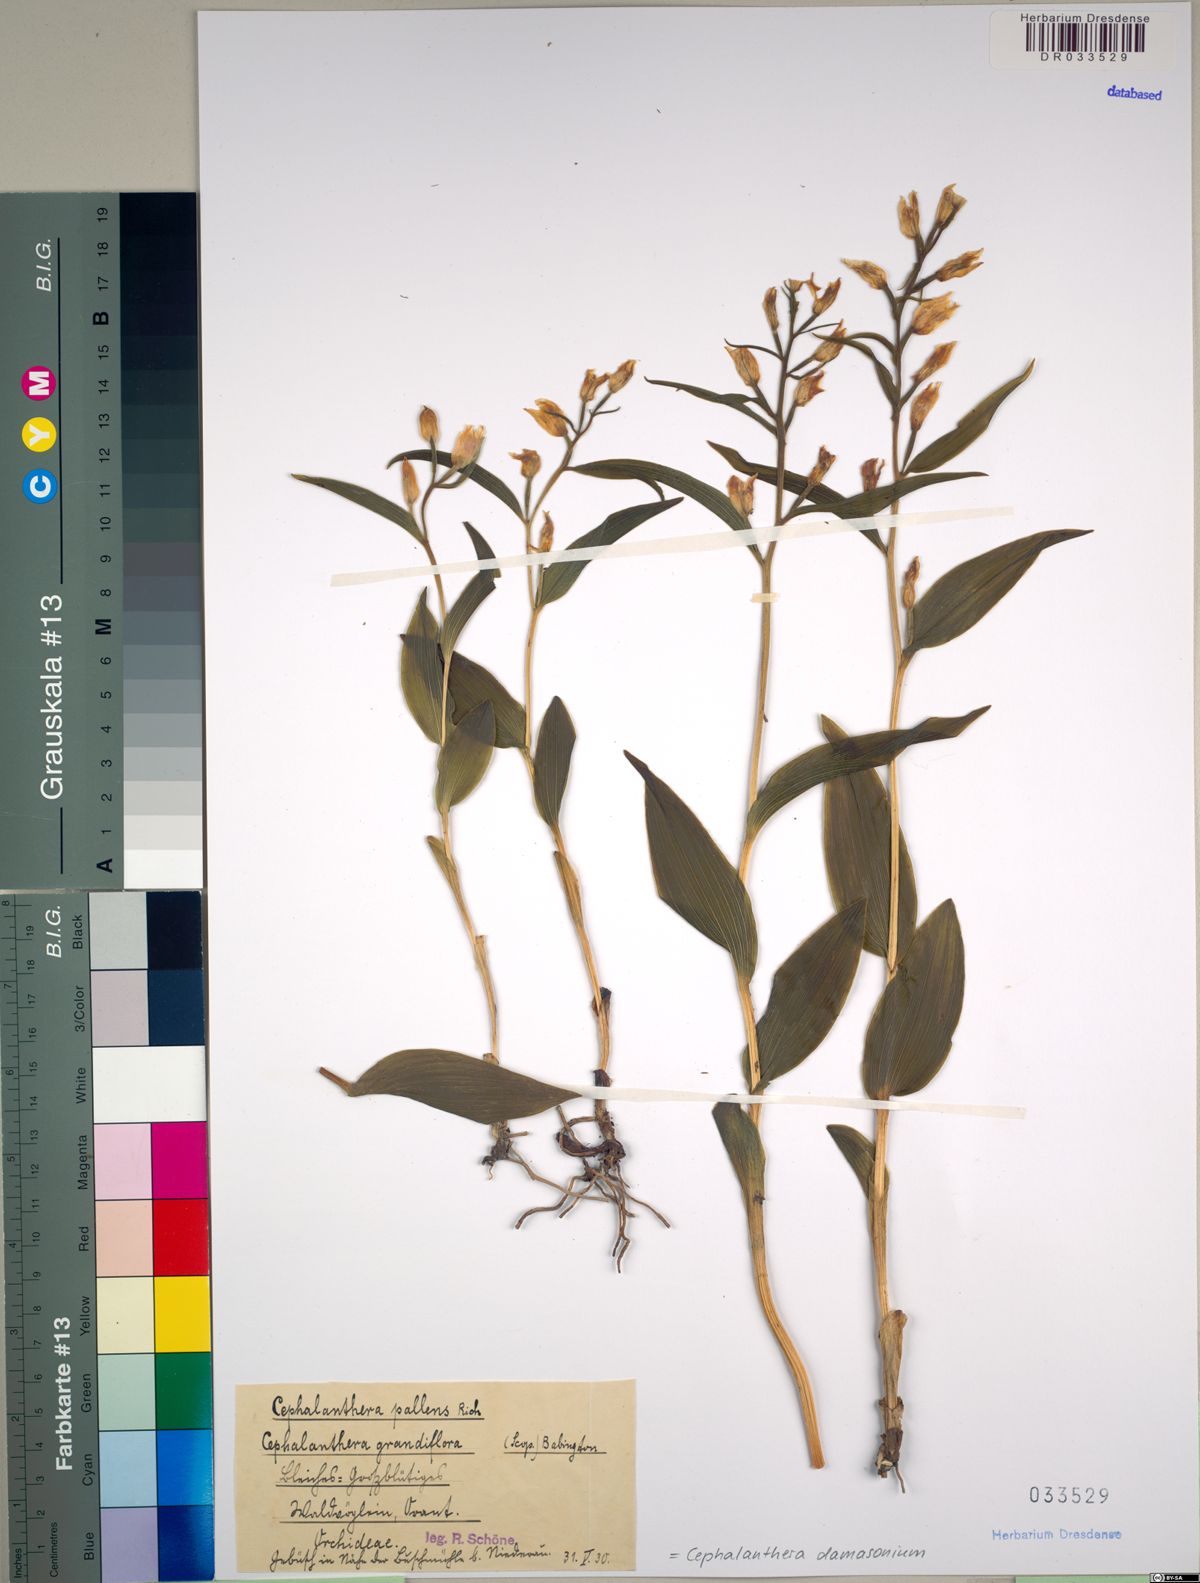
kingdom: Plantae
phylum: Tracheophyta
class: Liliopsida
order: Asparagales
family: Orchidaceae
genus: Cephalanthera
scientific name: Cephalanthera damasonium
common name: White helleborine
